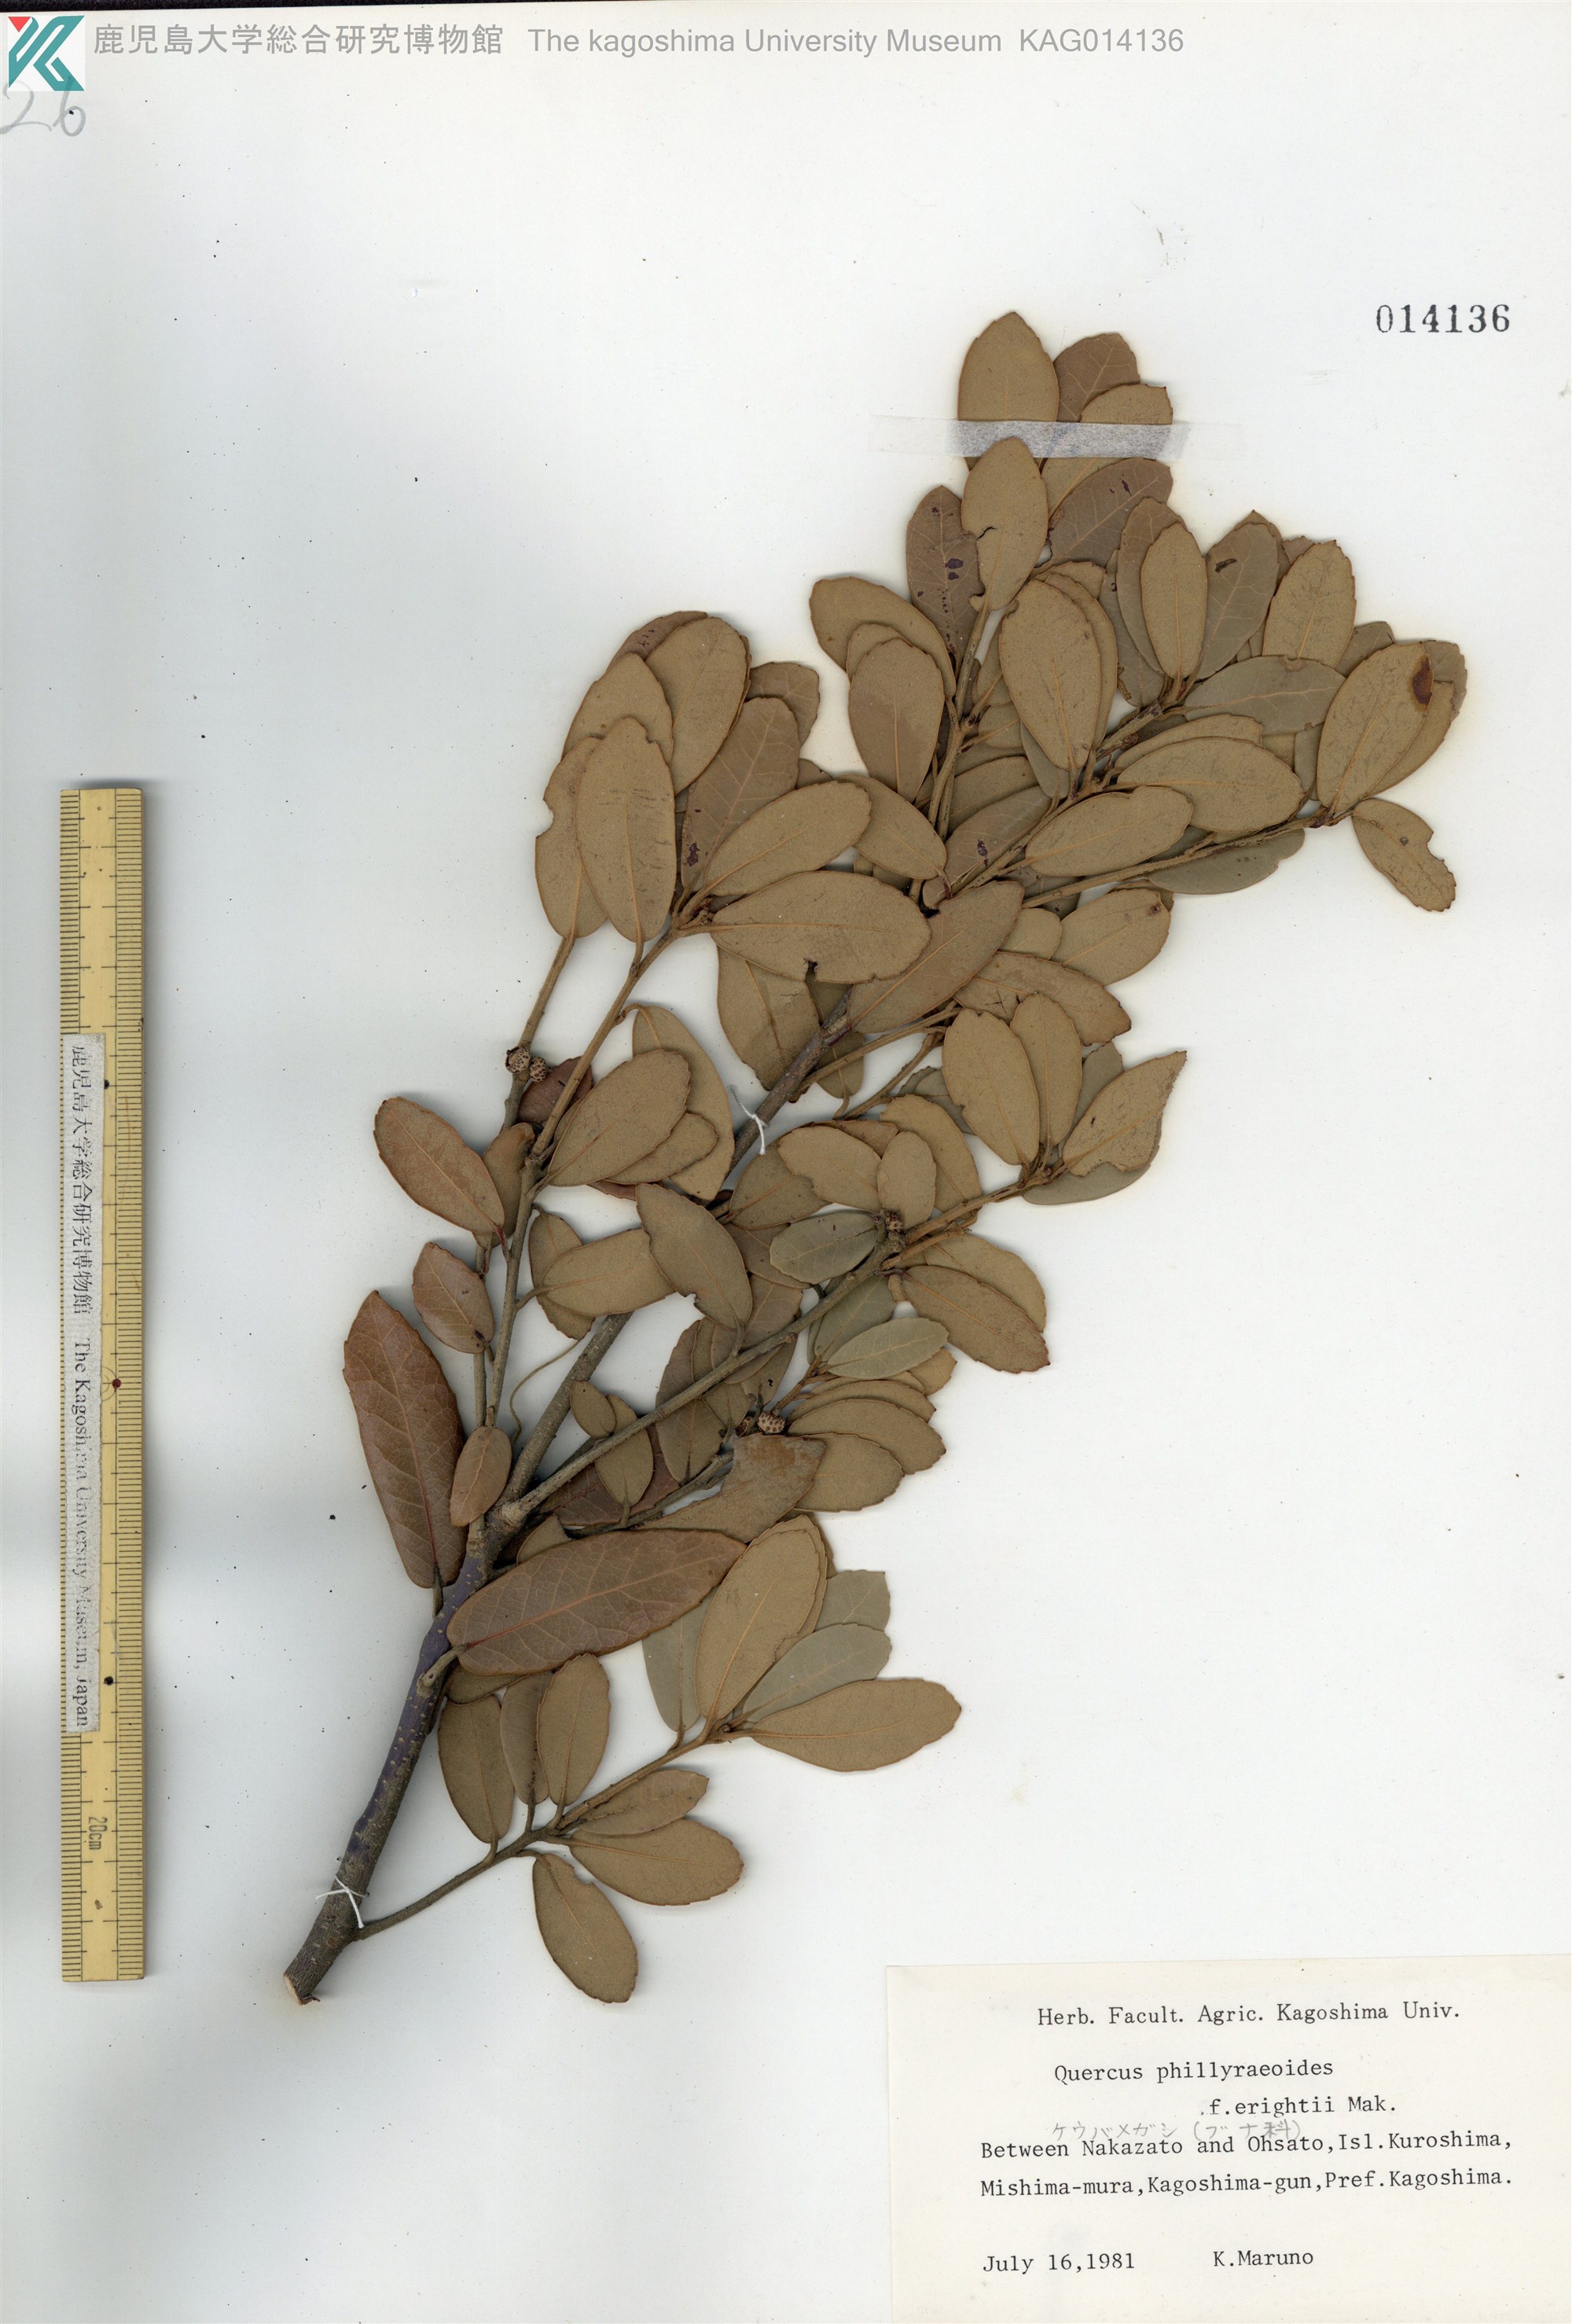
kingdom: Plantae
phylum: Tracheophyta
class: Magnoliopsida
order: Fagales
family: Fagaceae
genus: Quercus
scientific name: Quercus phillyreoides
